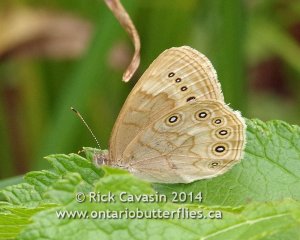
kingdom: Animalia
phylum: Arthropoda
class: Insecta
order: Lepidoptera
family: Nymphalidae
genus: Lethe
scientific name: Lethe eurydice
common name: Eyed Brown
